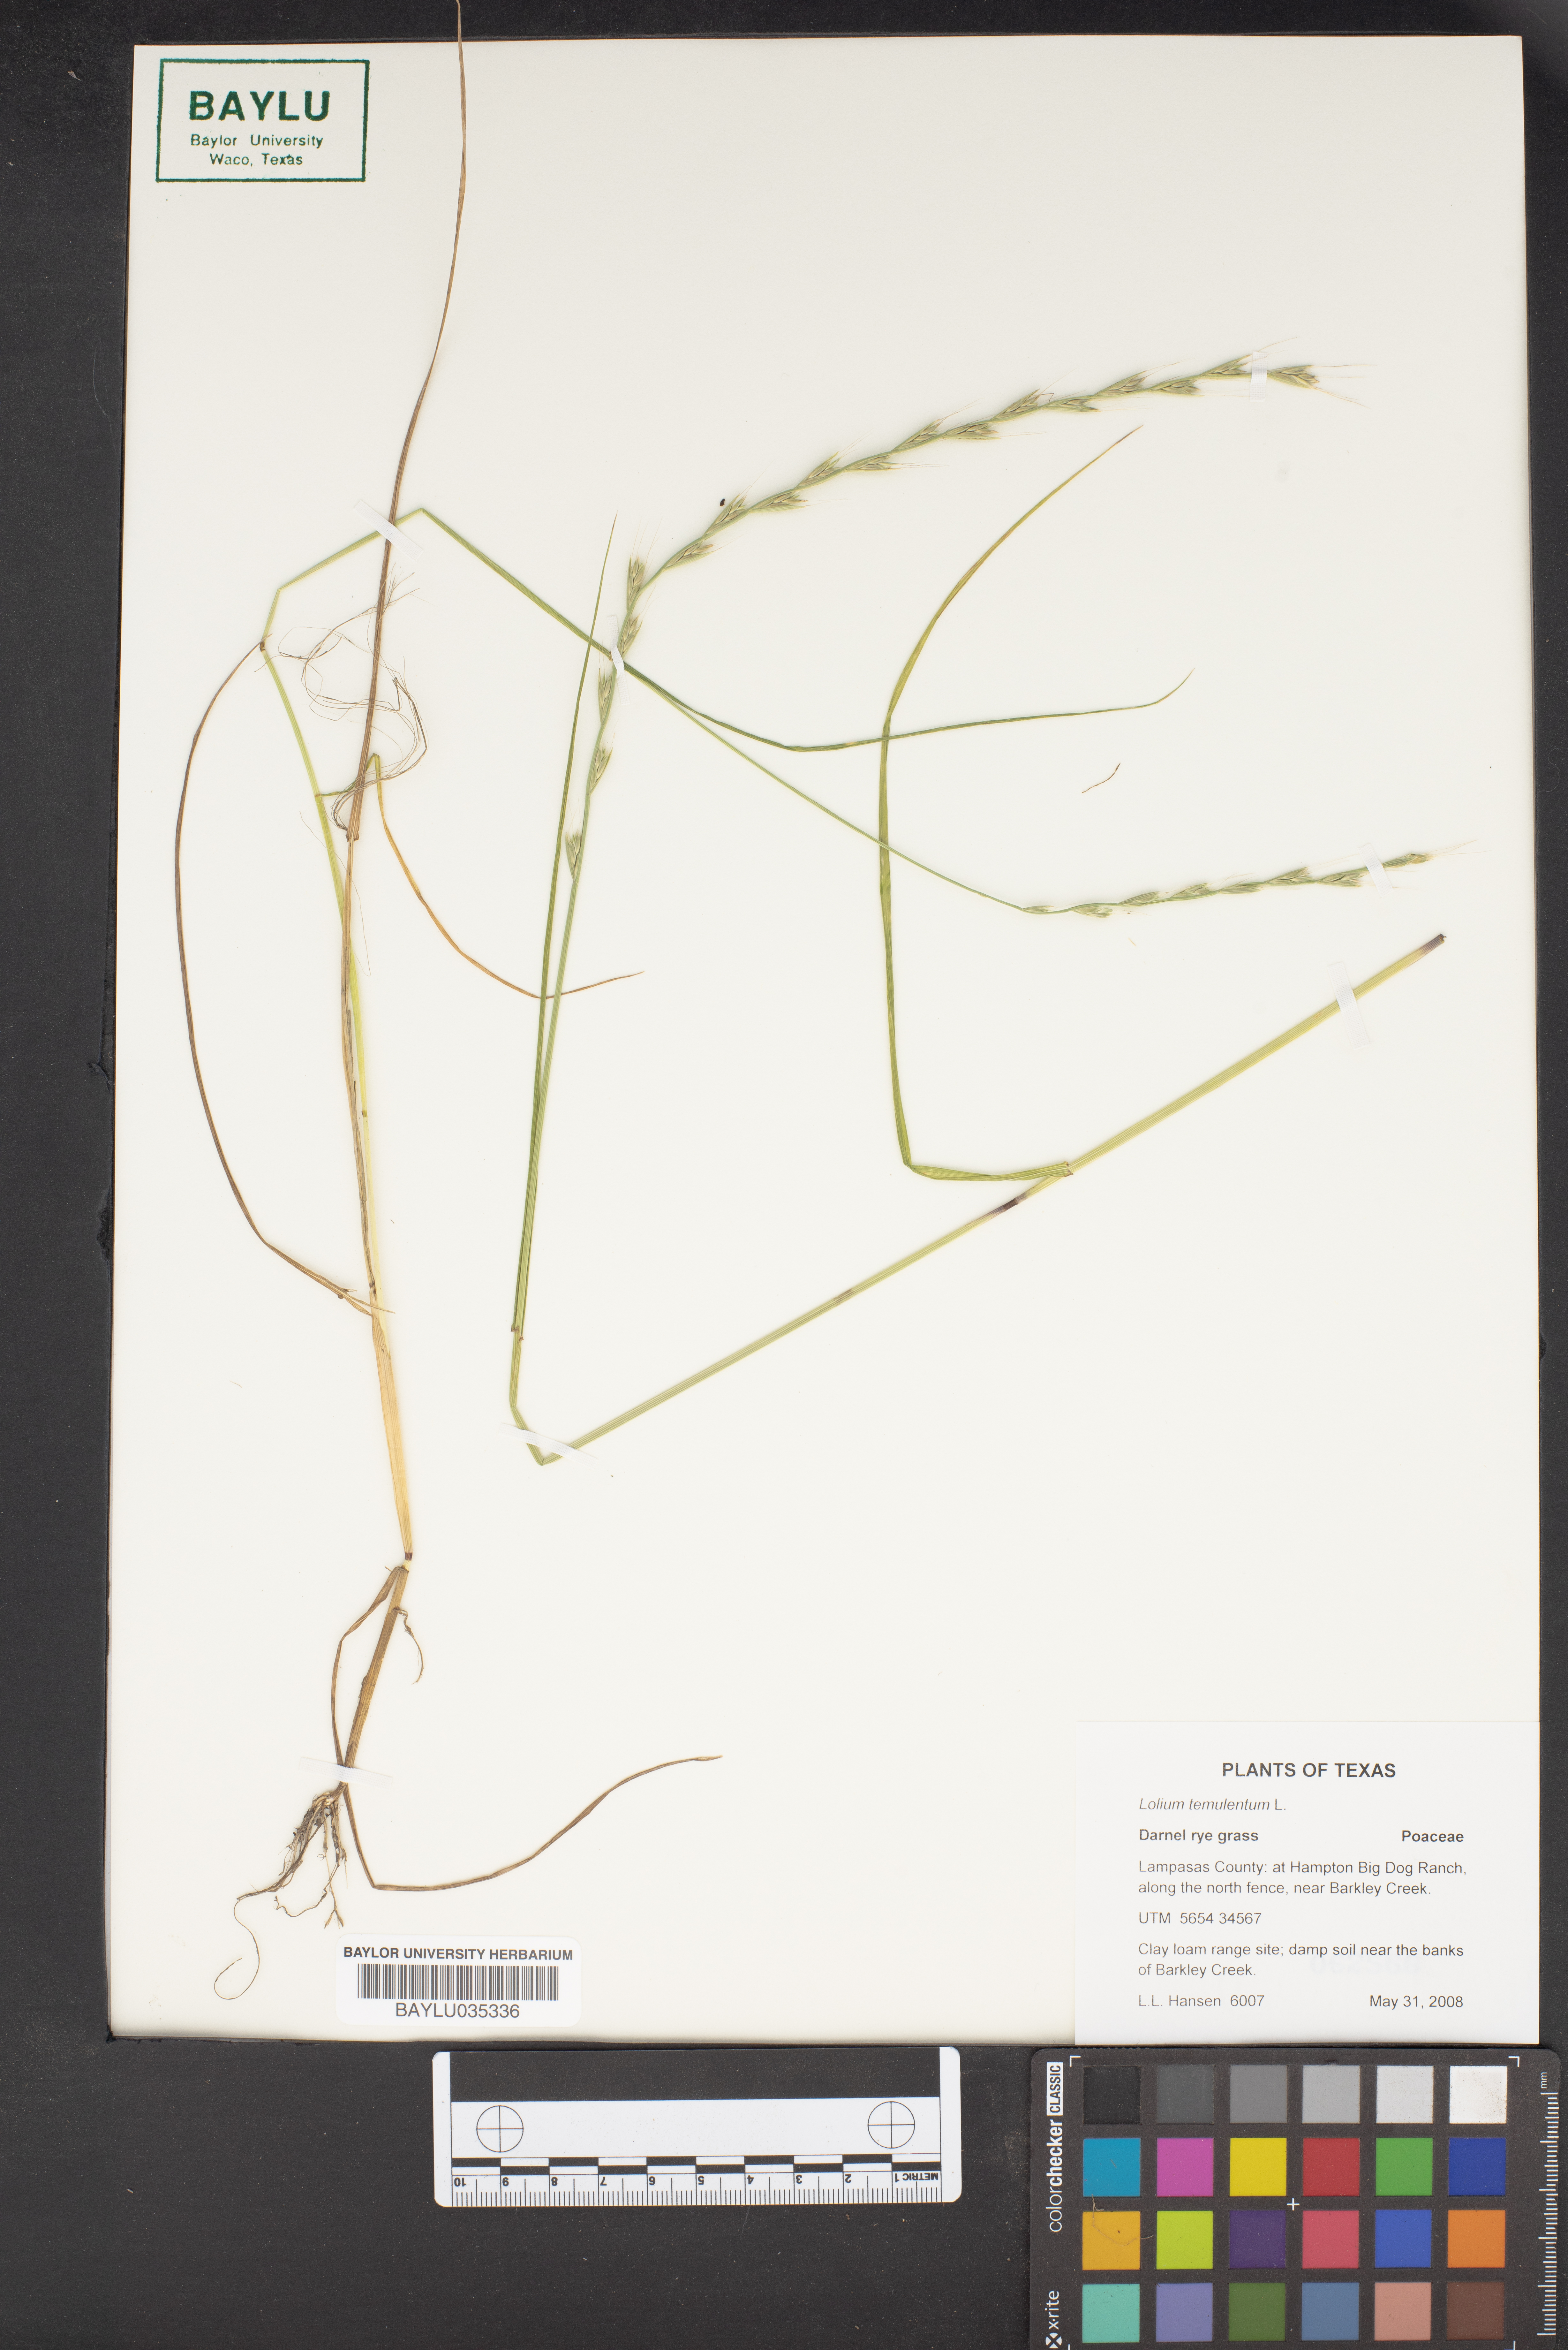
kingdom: Plantae
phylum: Tracheophyta
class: Liliopsida
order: Poales
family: Poaceae
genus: Lolium
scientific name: Lolium temulentum
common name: Darnel
